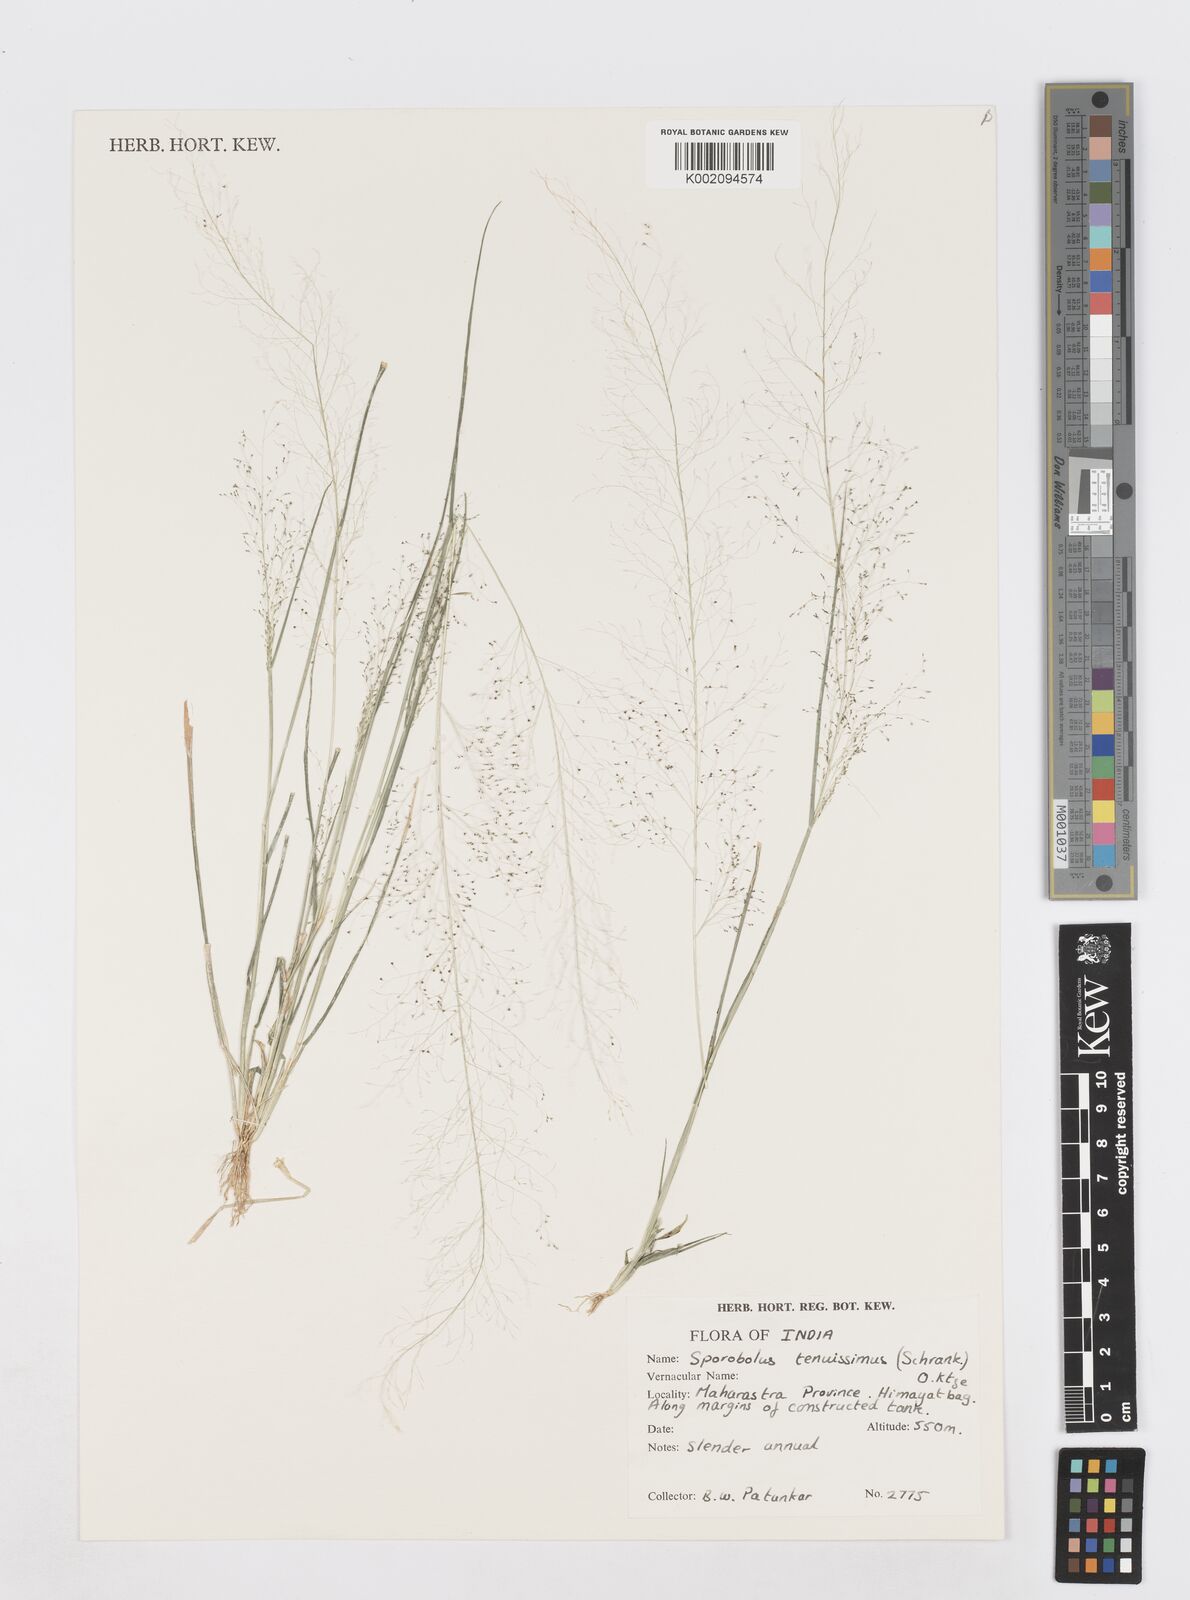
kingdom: Plantae
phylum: Tracheophyta
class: Liliopsida
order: Poales
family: Poaceae
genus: Sporobolus
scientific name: Sporobolus tenuissimus
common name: Tropical dropseed
